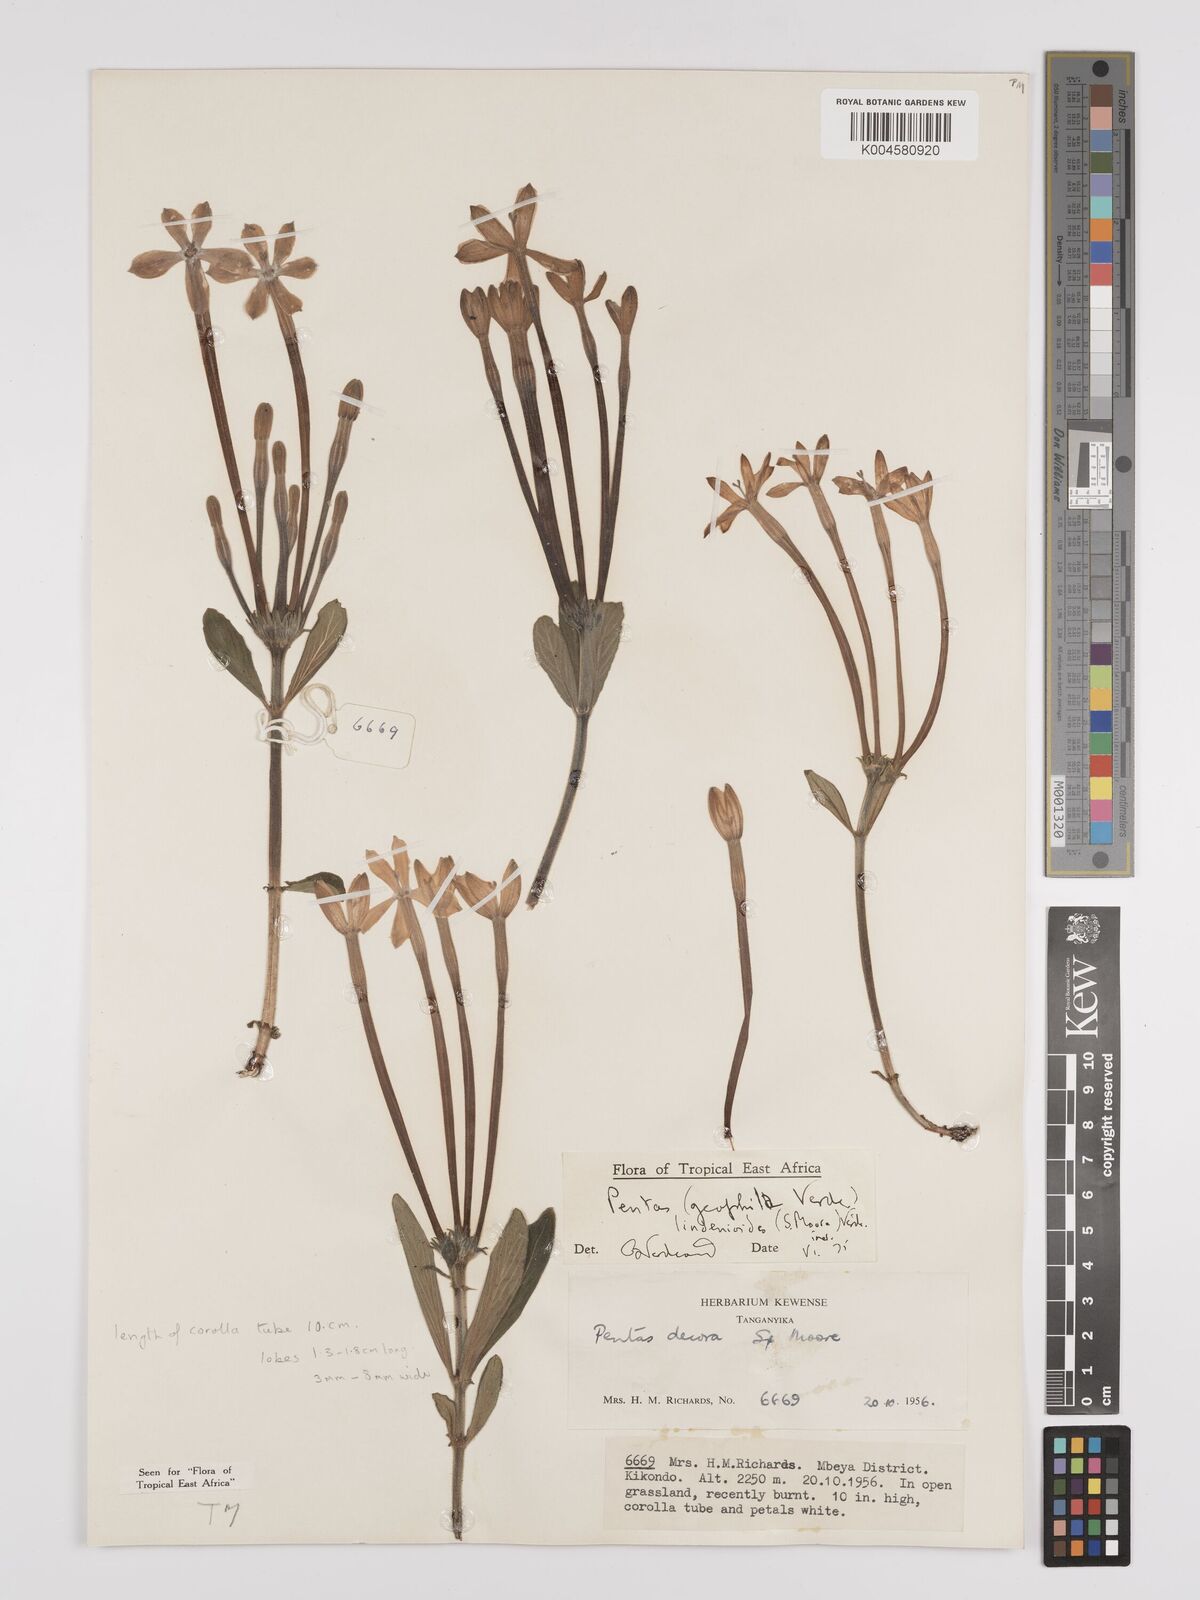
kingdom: Plantae
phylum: Tracheophyta
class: Magnoliopsida
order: Gentianales
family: Rubiaceae
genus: Dolichopentas
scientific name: Dolichopentas lindenioides
